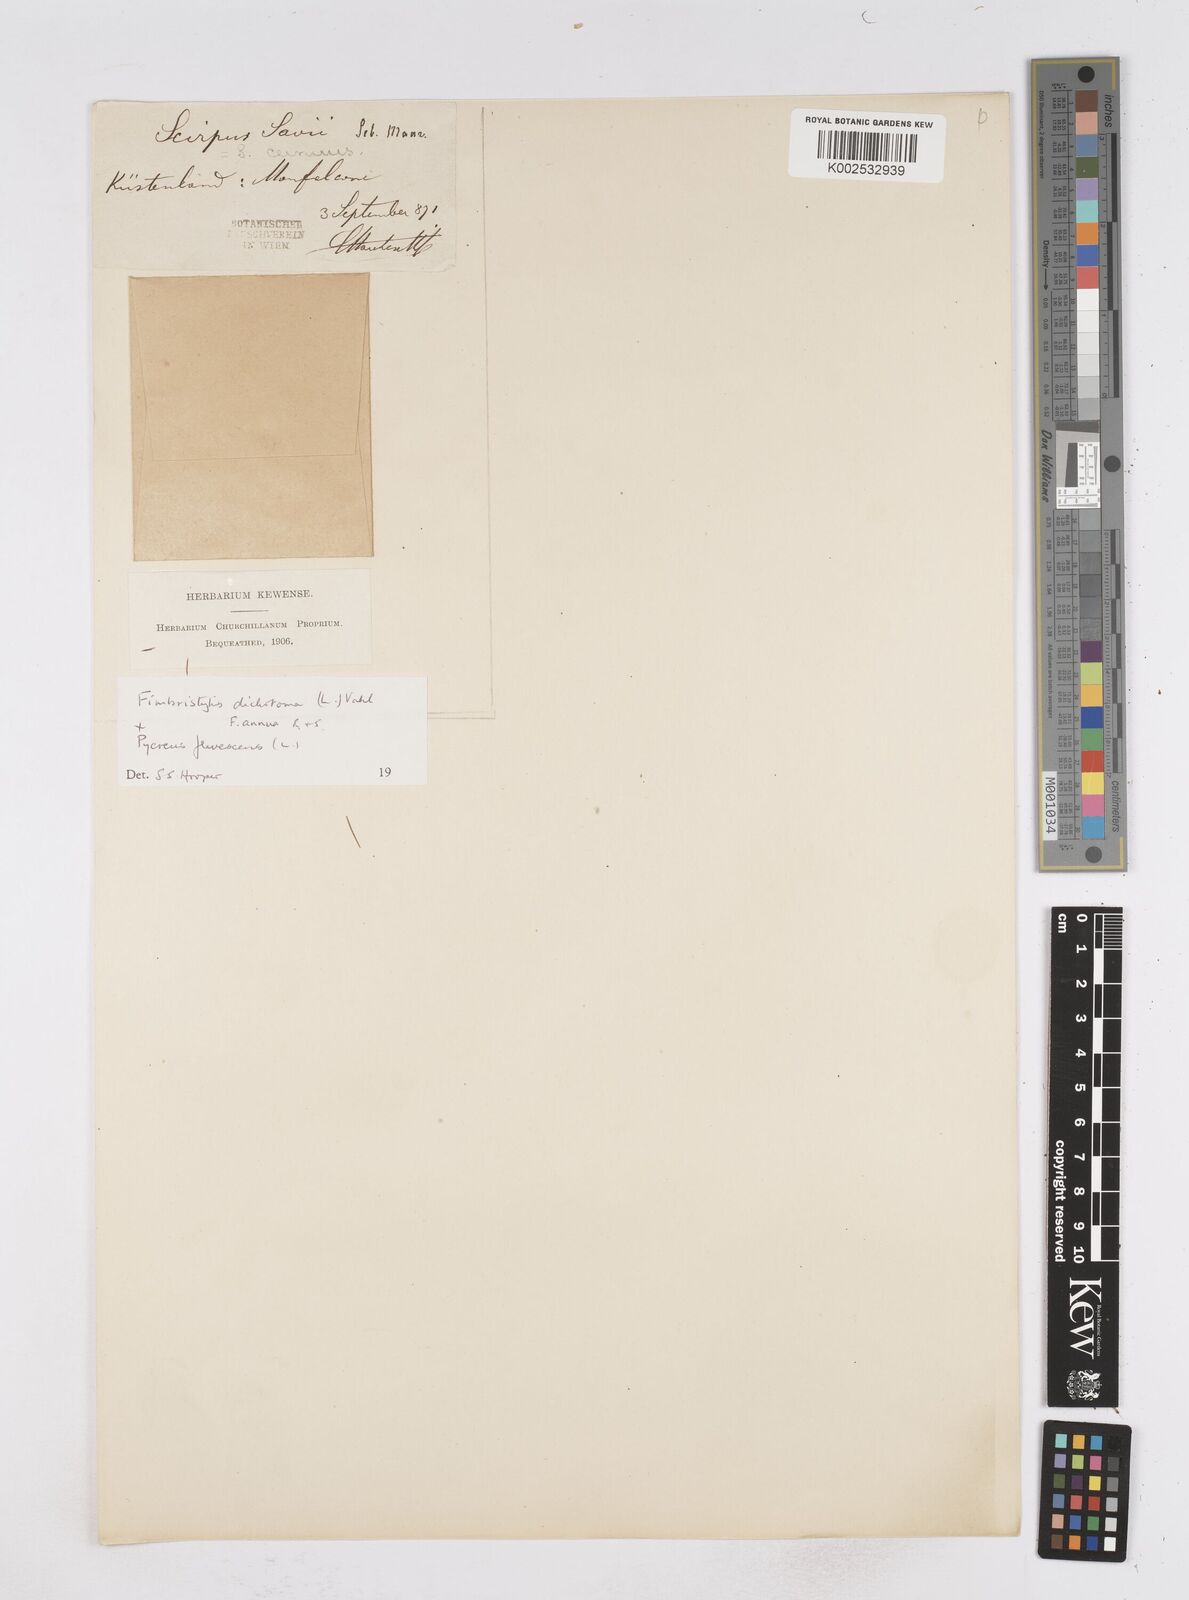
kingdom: Plantae
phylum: Tracheophyta
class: Liliopsida
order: Poales
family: Cyperaceae
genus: Fimbristylis
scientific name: Fimbristylis dichotoma
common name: Forked fimbry
